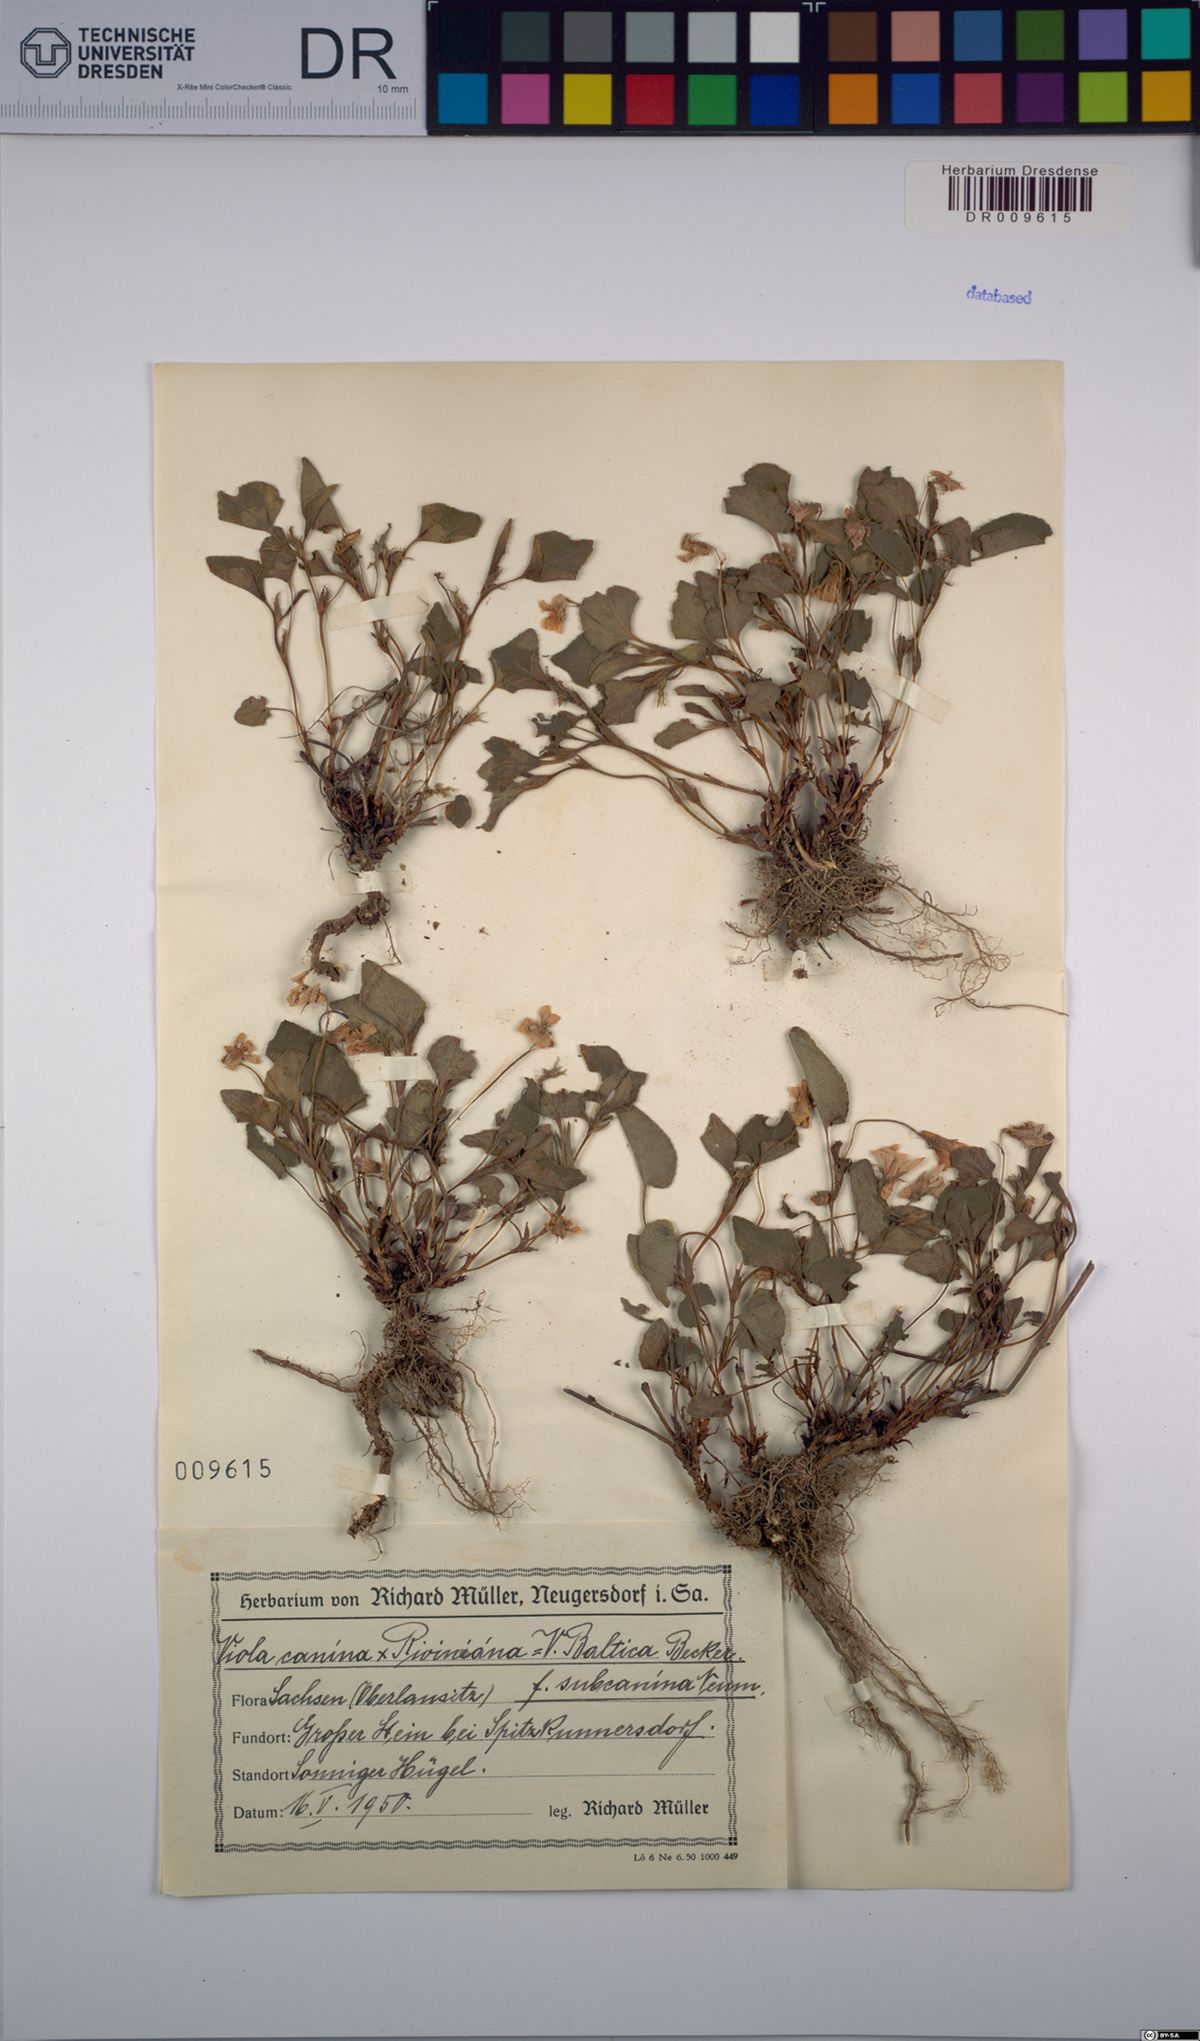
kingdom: Plantae
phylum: Tracheophyta
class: Magnoliopsida
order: Malpighiales
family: Violaceae
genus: Viola
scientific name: Viola riviniana
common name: Common dog-violet
